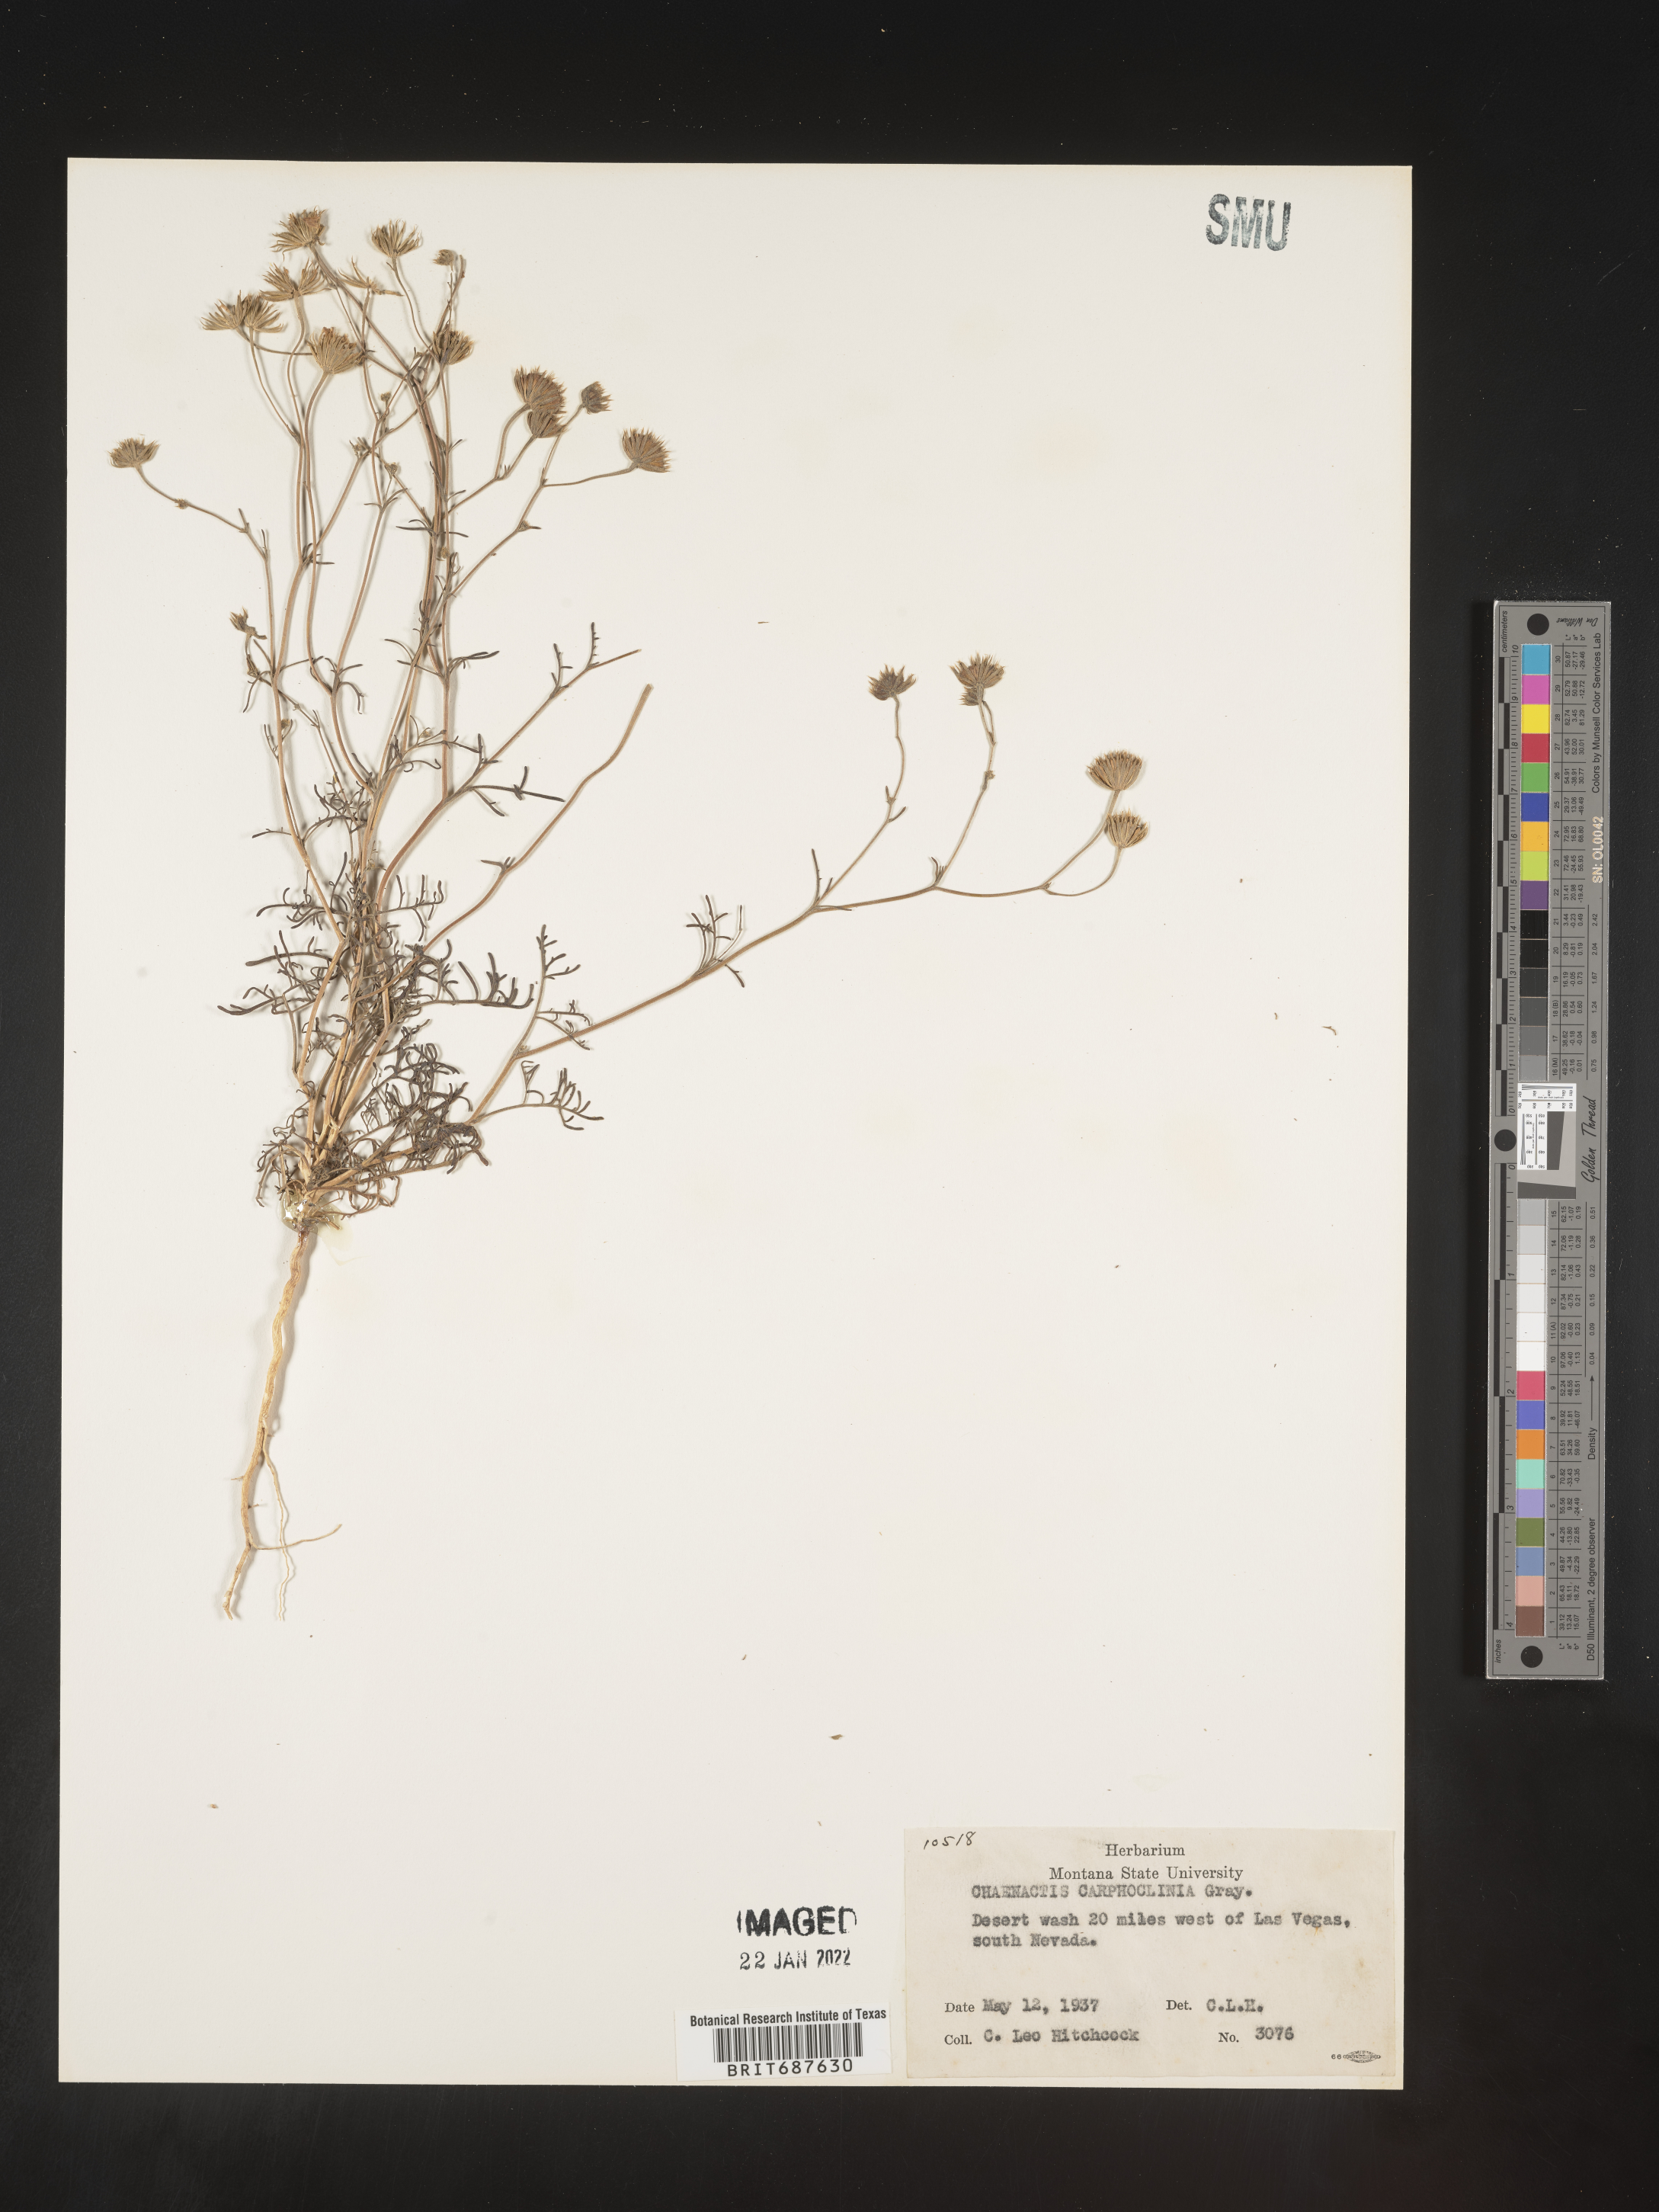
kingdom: Plantae
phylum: Tracheophyta
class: Magnoliopsida
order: Asterales
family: Asteraceae
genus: Chaenactis
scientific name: Chaenactis carphoclinia
